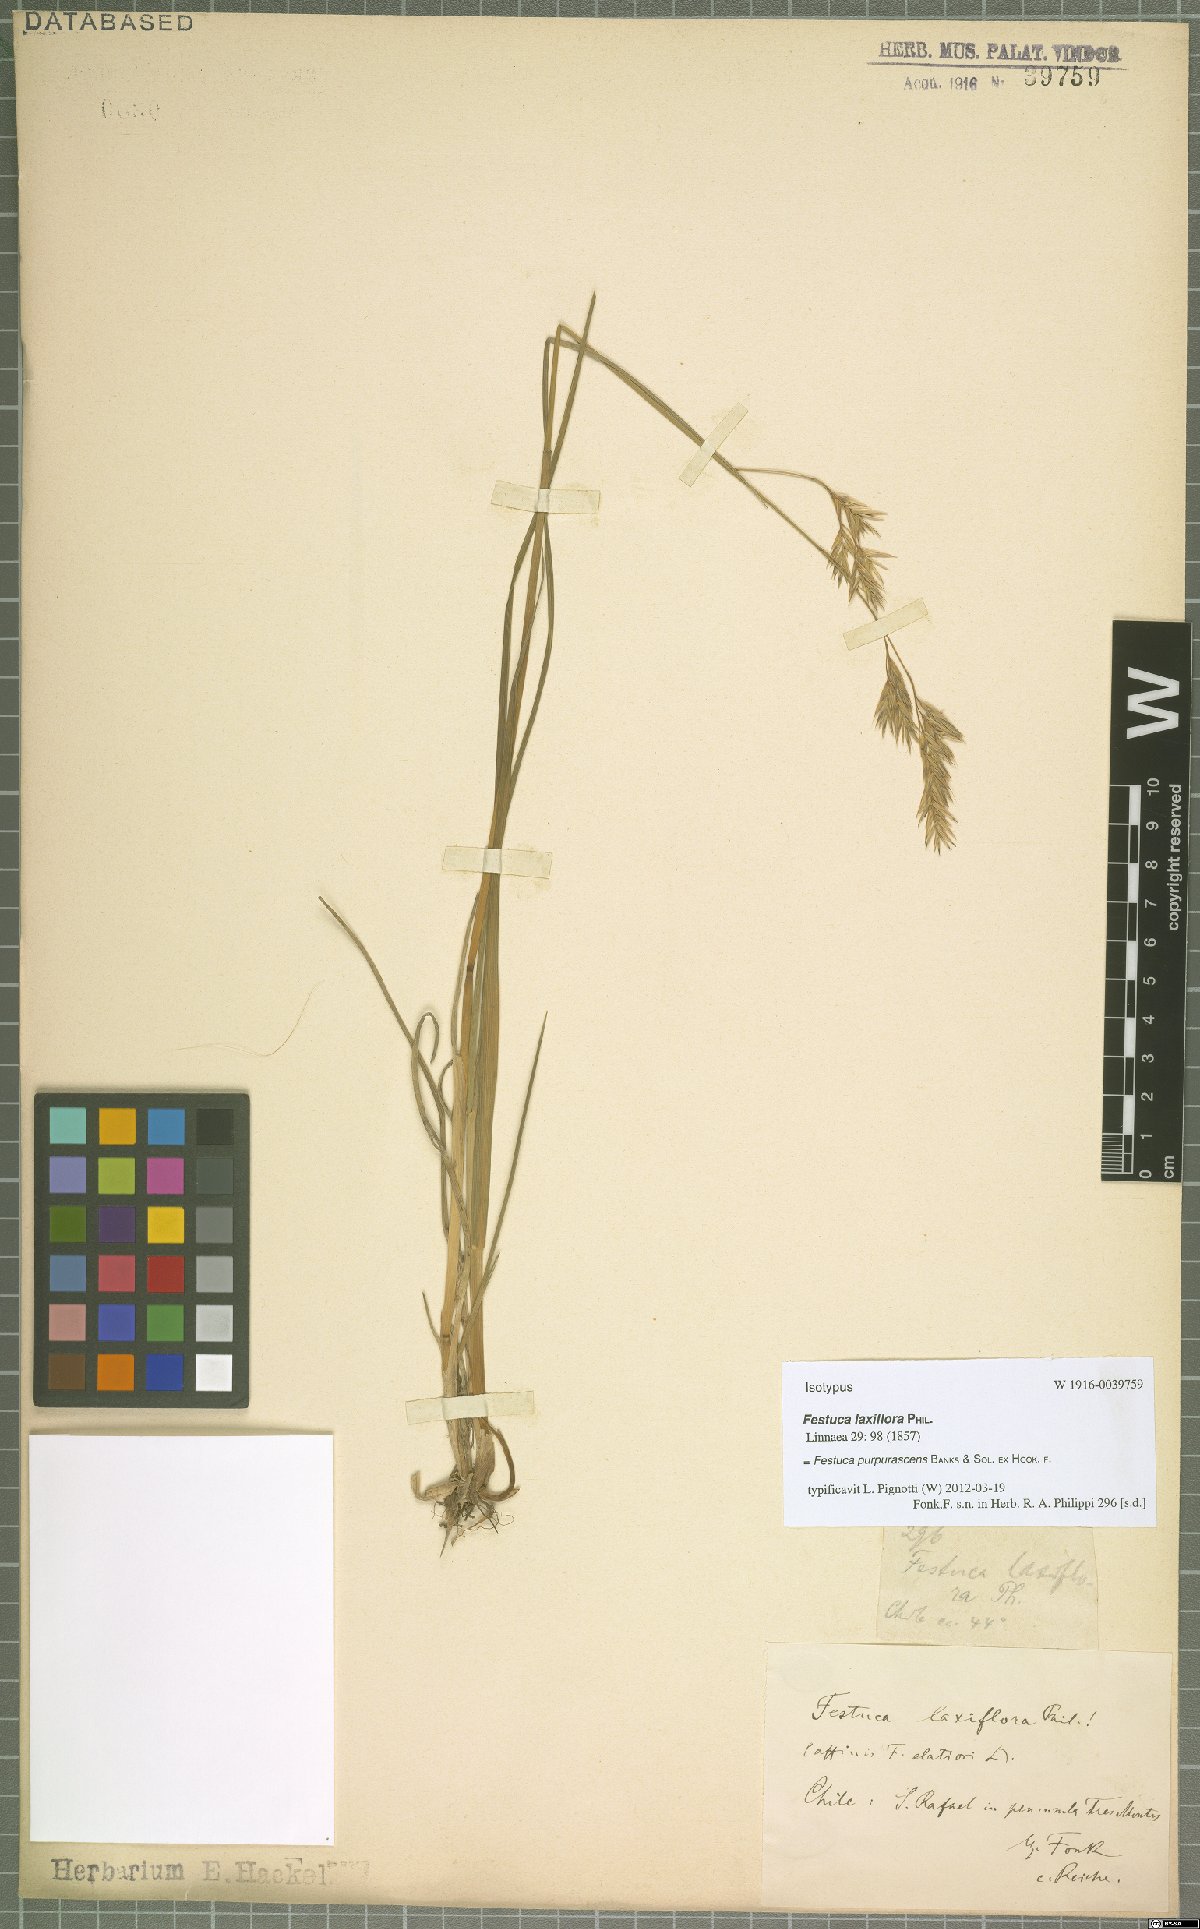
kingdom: Plantae
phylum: Tracheophyta
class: Liliopsida
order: Poales
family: Poaceae
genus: Festuca
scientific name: Festuca purpurascens
